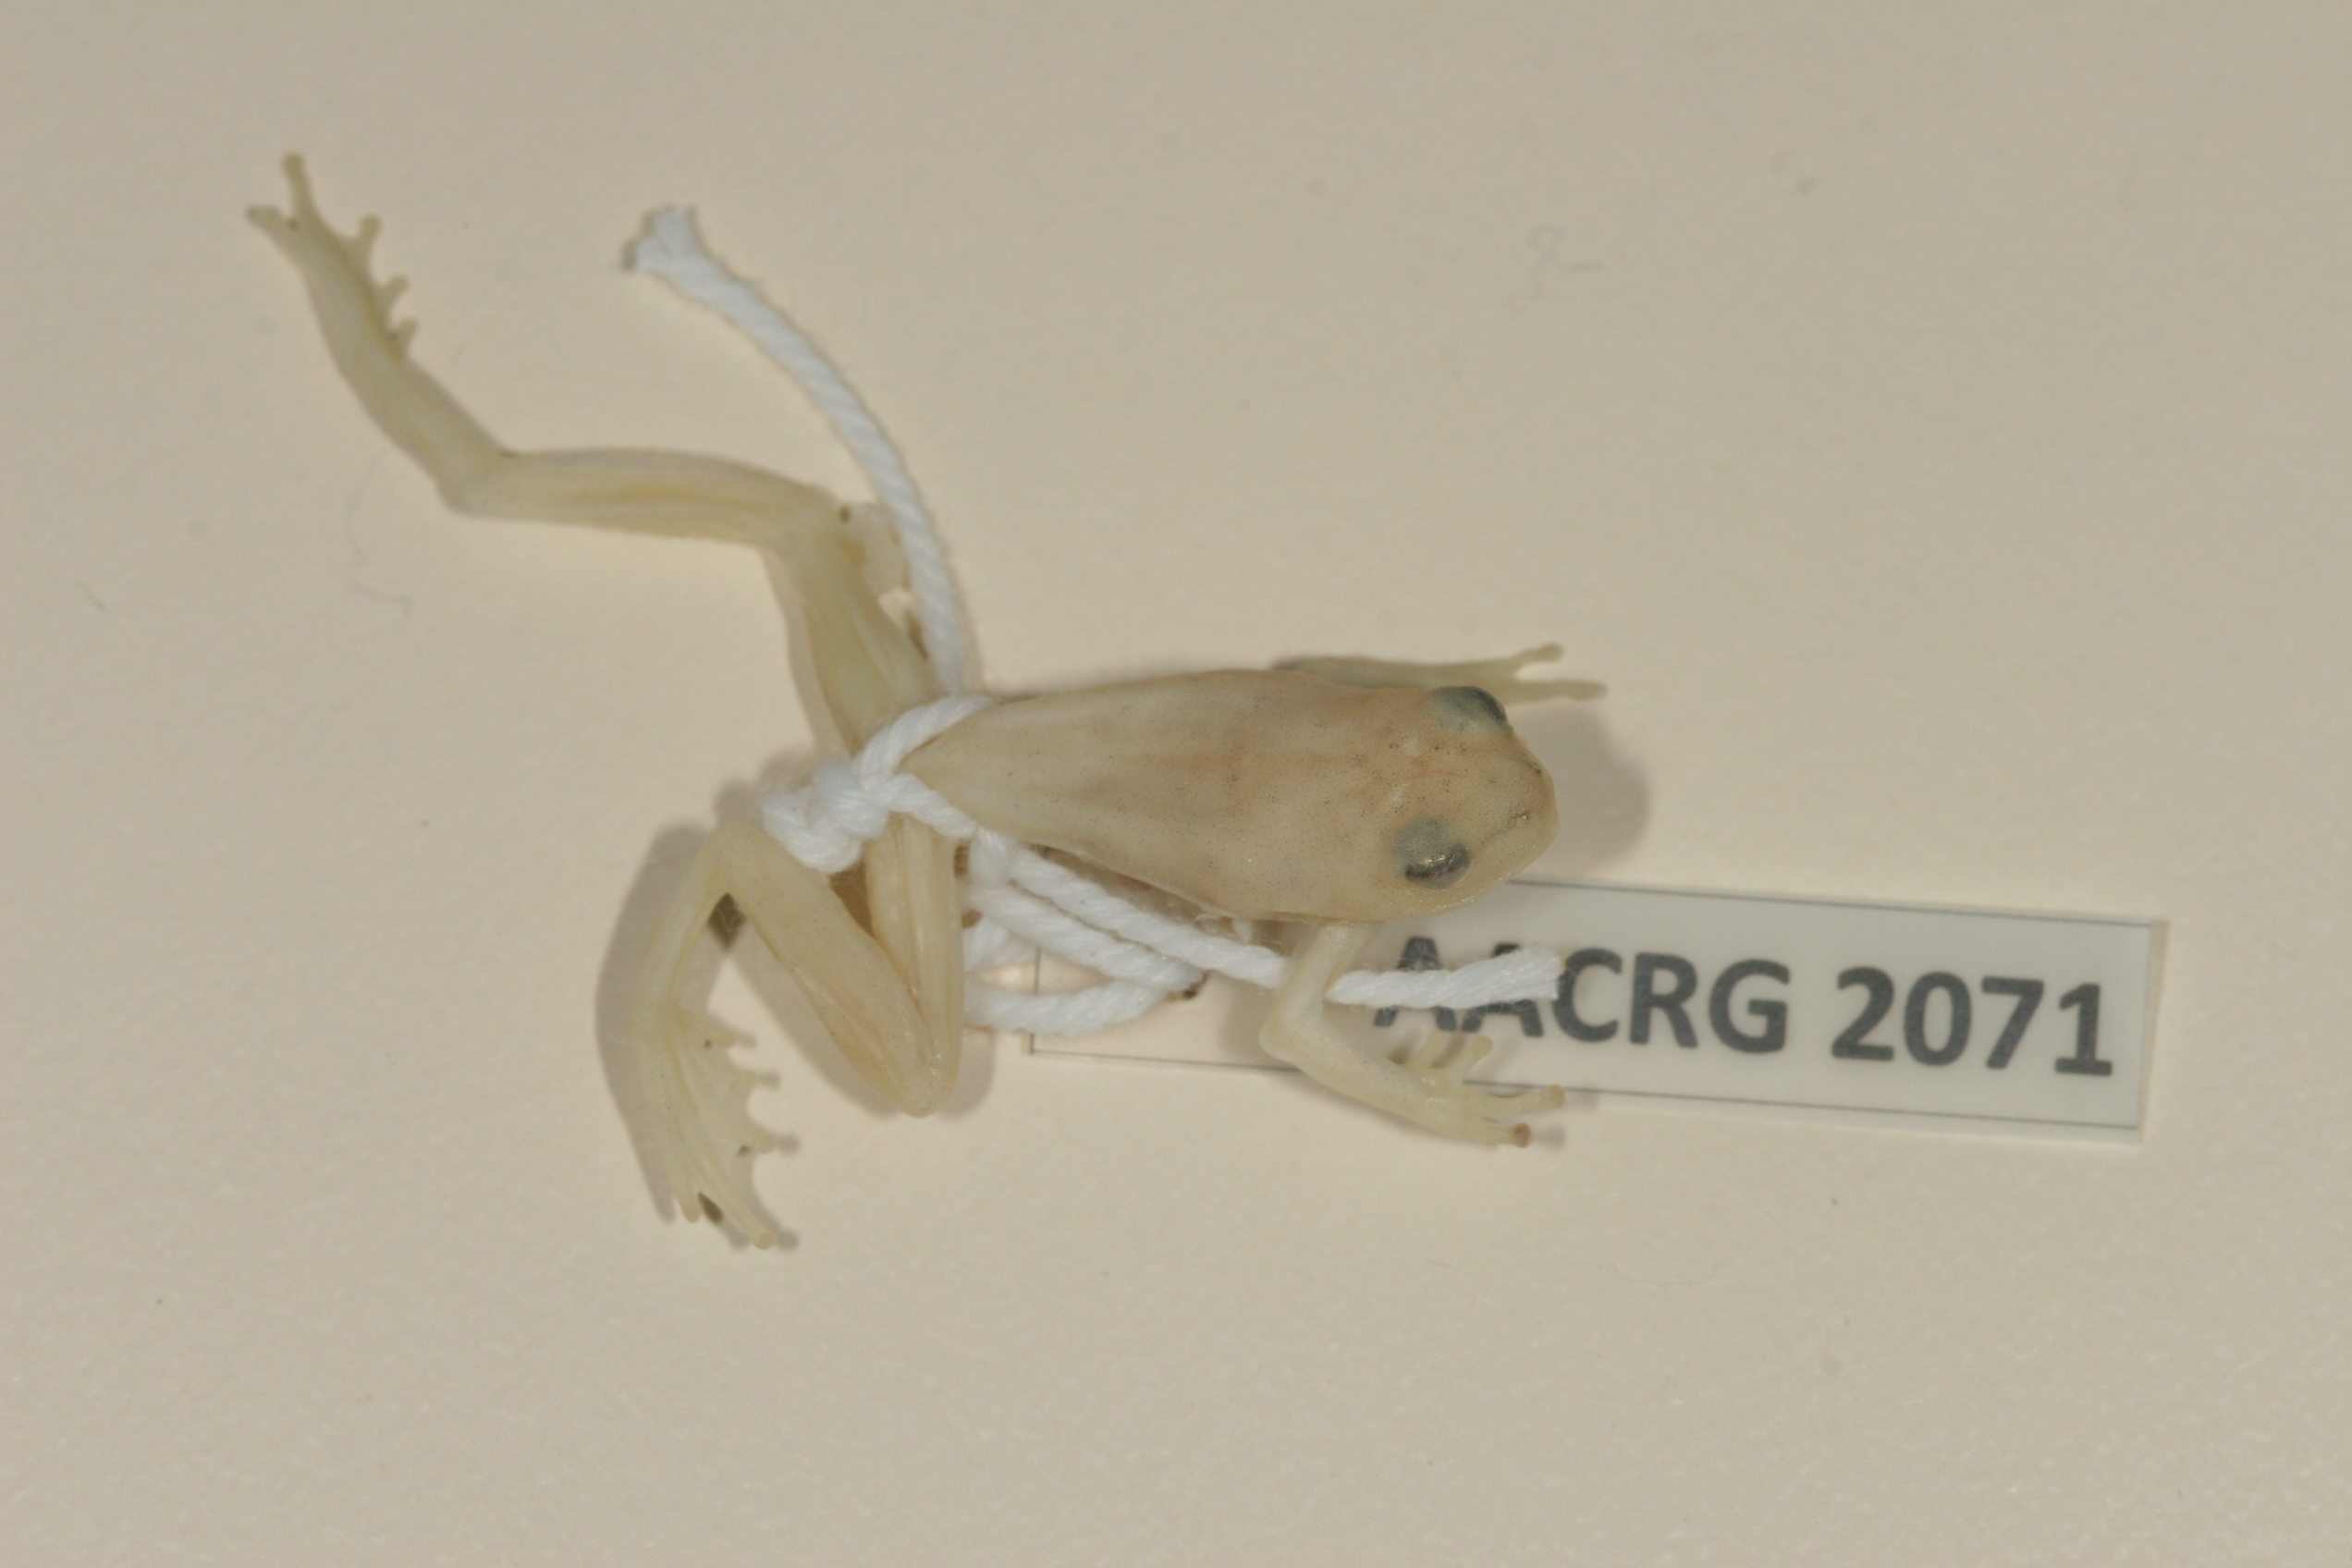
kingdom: Animalia
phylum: Chordata
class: Amphibia
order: Anura
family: Hyperoliidae
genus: Hyperolius
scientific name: Hyperolius pusillus
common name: Water lily reed frog
